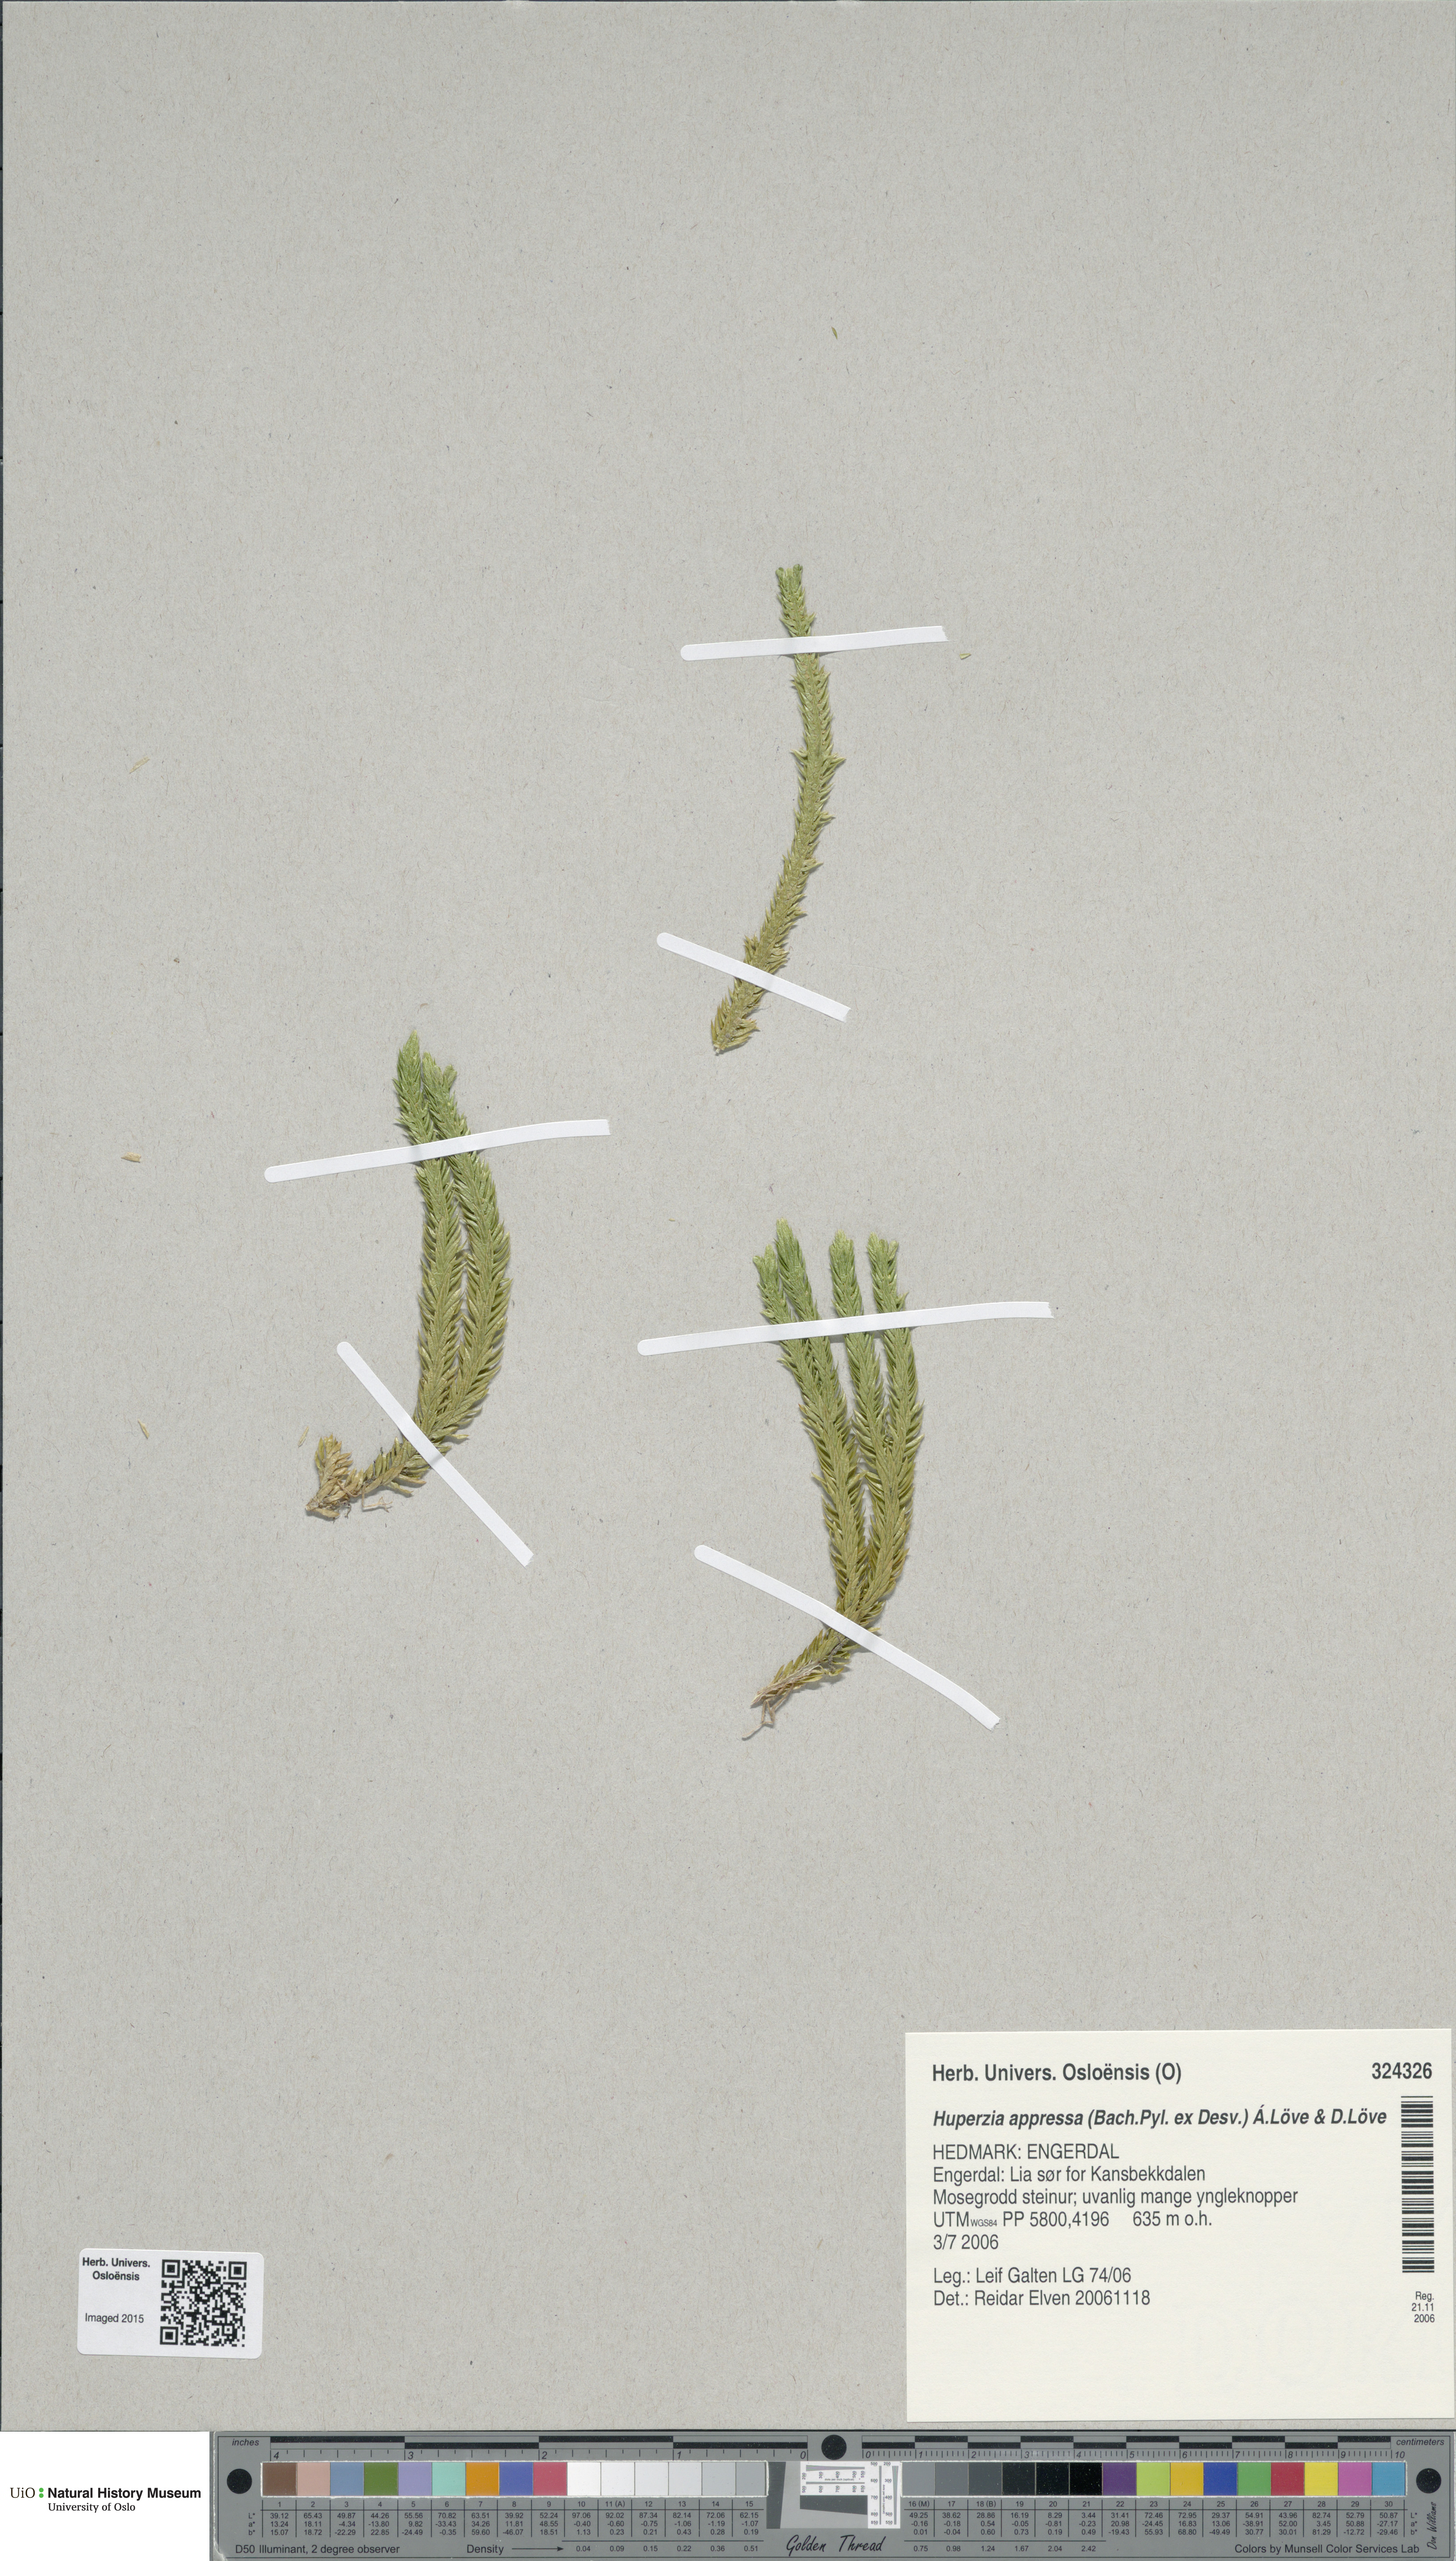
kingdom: Plantae
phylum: Tracheophyta
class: Lycopodiopsida
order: Lycopodiales
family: Lycopodiaceae
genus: Huperzia
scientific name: Huperzia selago
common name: Northern firmoss
